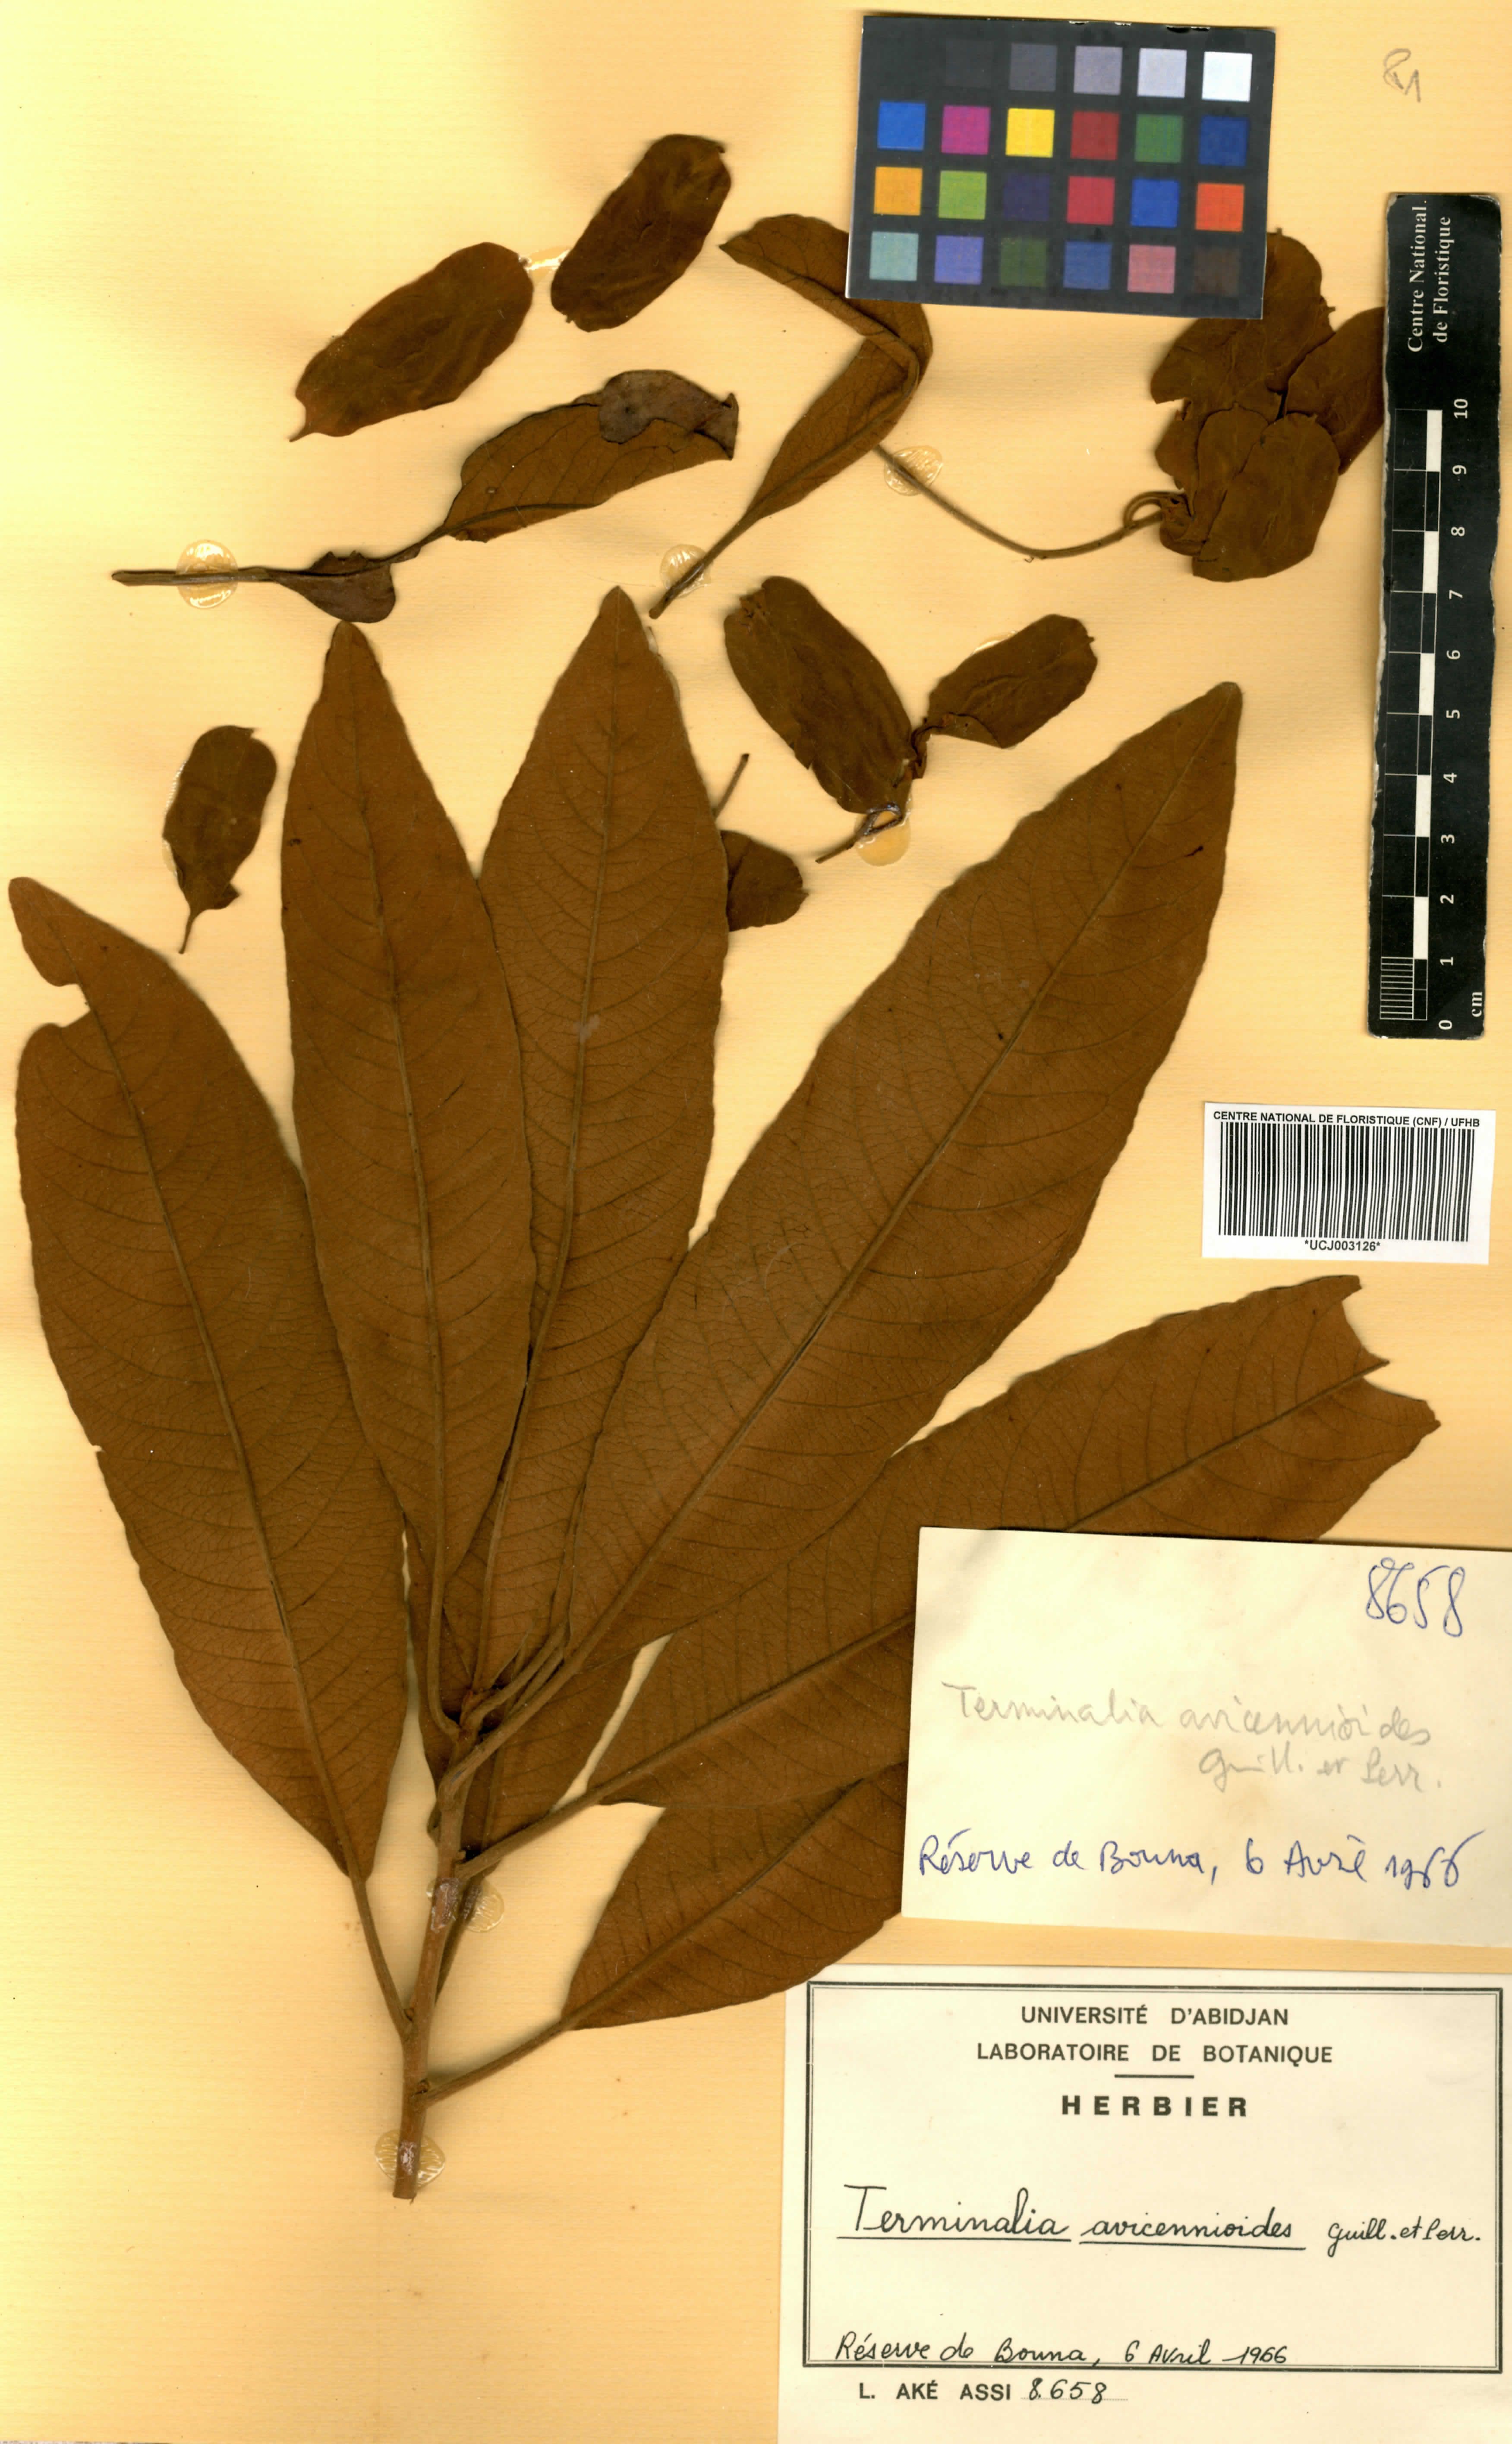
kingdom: Plantae
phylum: Tracheophyta
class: Magnoliopsida
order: Myrtales
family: Combretaceae
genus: Terminalia
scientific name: Terminalia avicennioides
